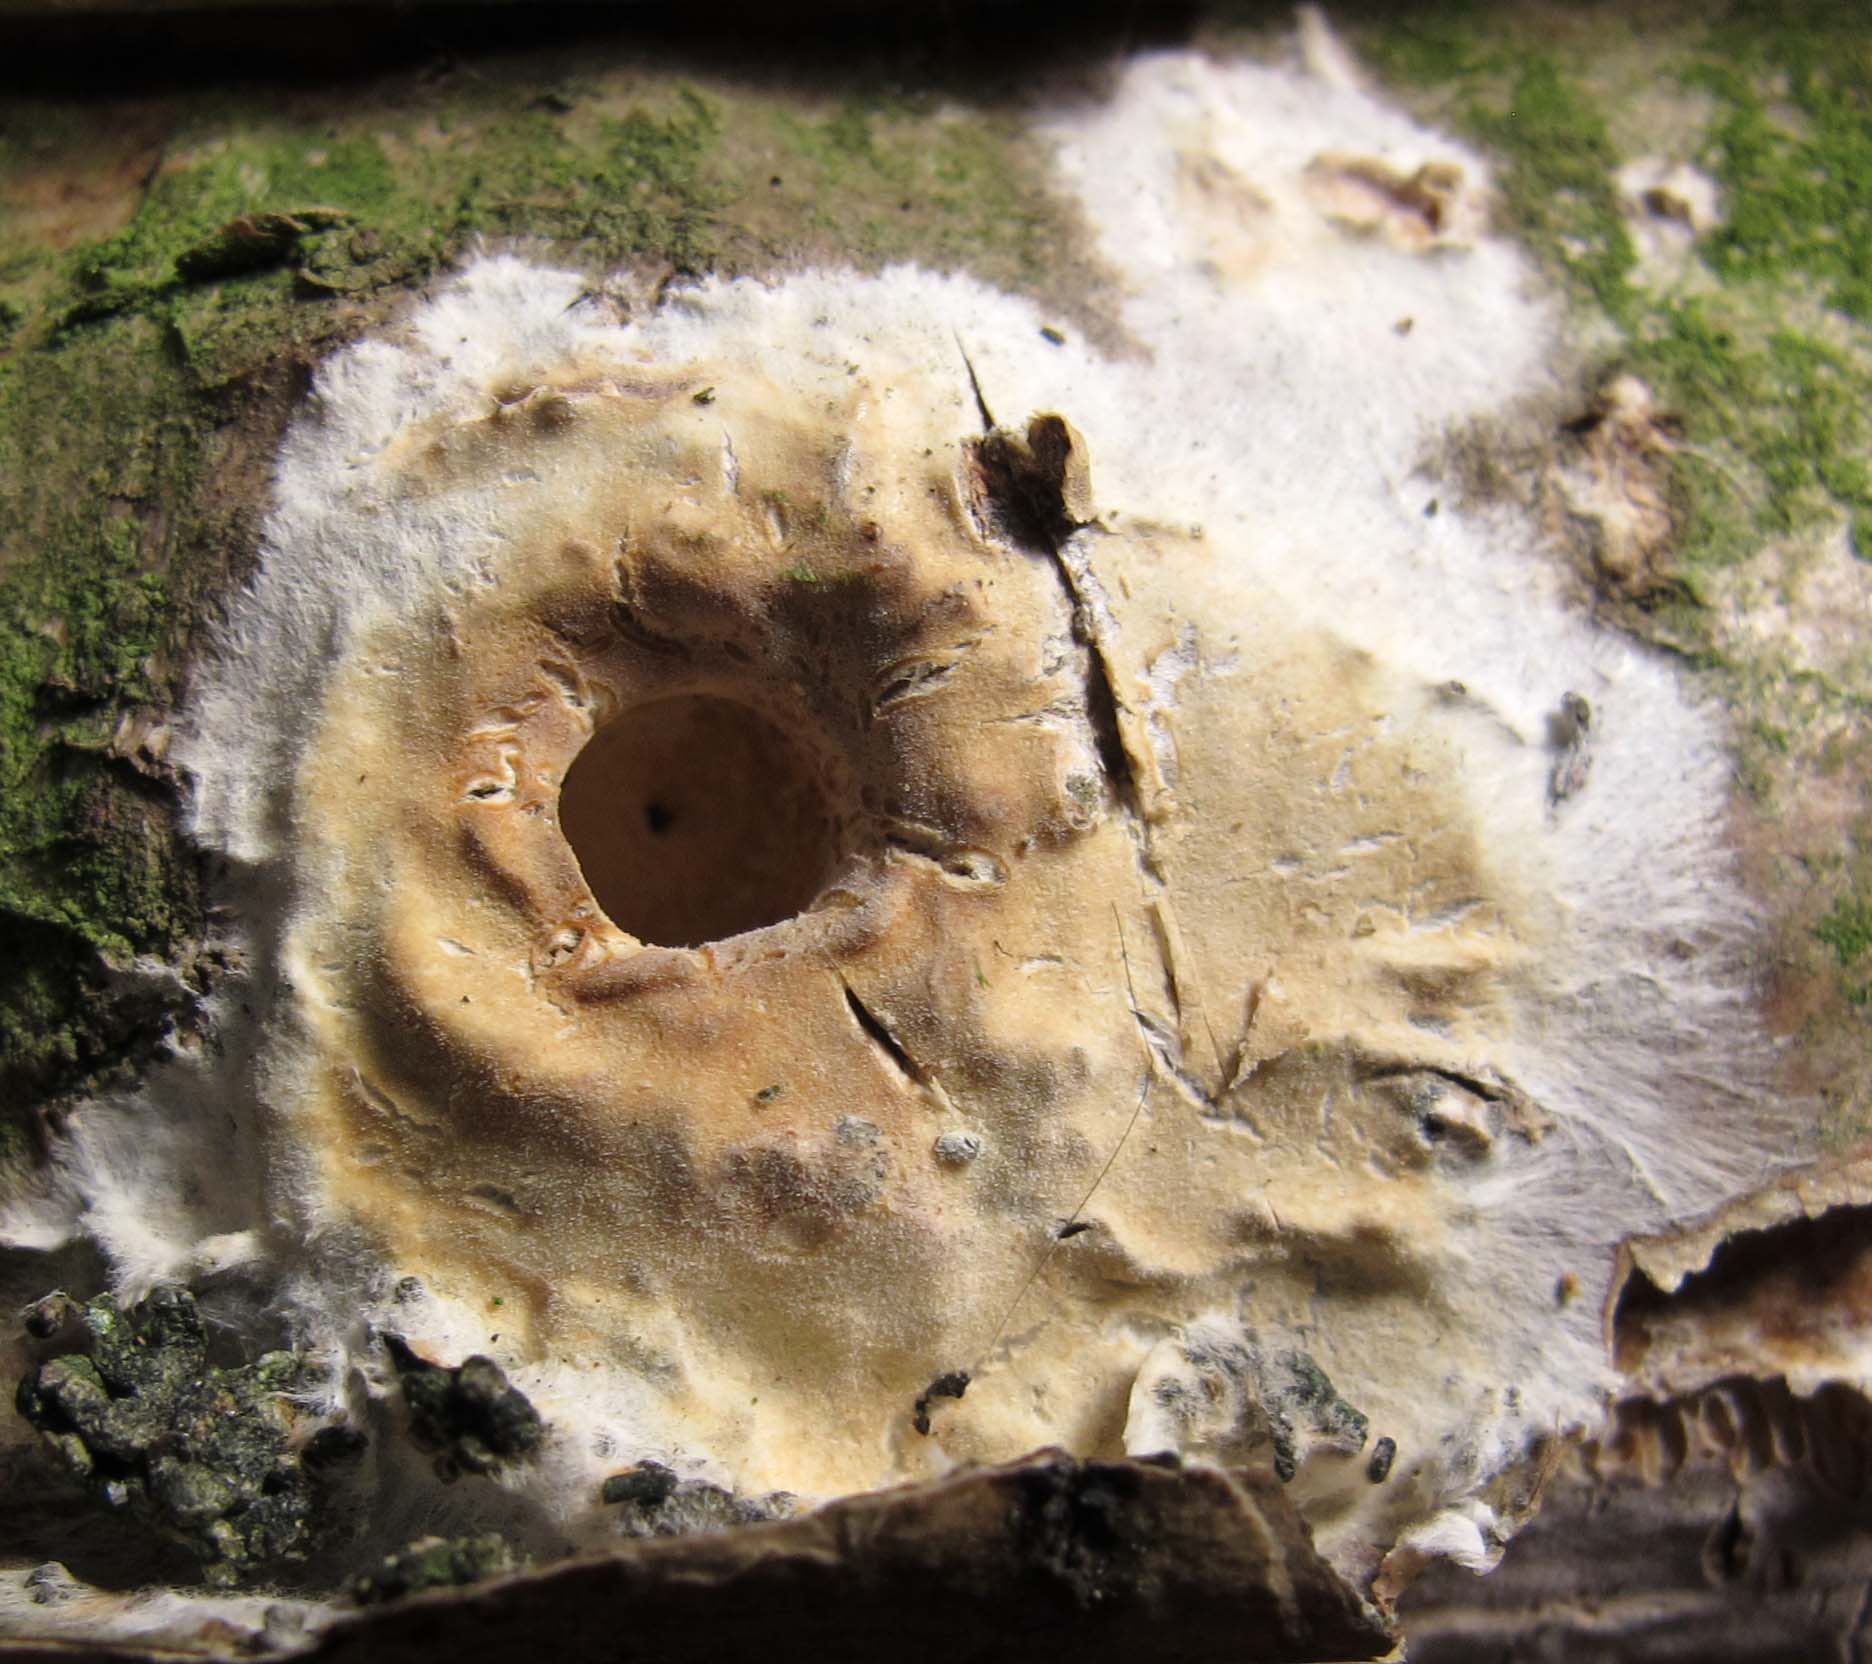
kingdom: Fungi
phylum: Basidiomycota
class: Agaricomycetes
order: Polyporales
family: Phanerochaetaceae
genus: Phanerochaete
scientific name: Phanerochaete velutina
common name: dunet randtråd
